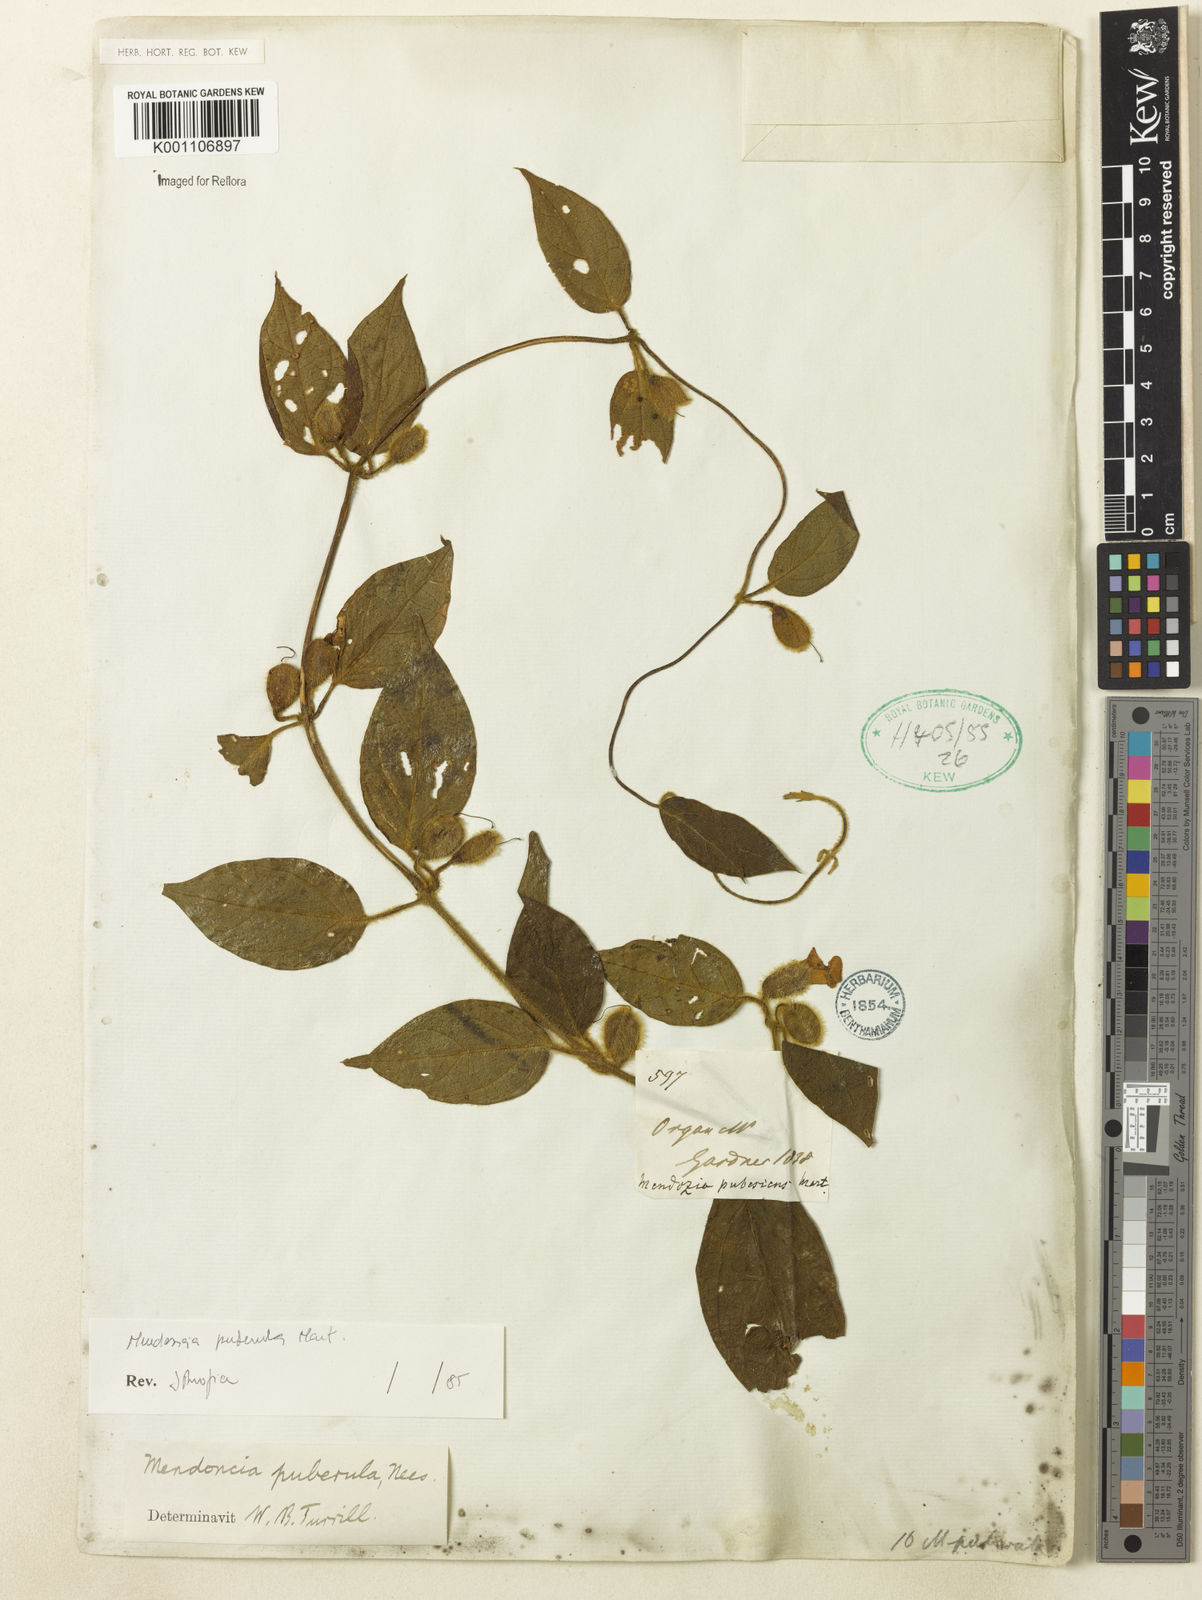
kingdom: Plantae
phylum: Tracheophyta
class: Magnoliopsida
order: Lamiales
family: Acanthaceae
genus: Mendoncia
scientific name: Mendoncia puberula
